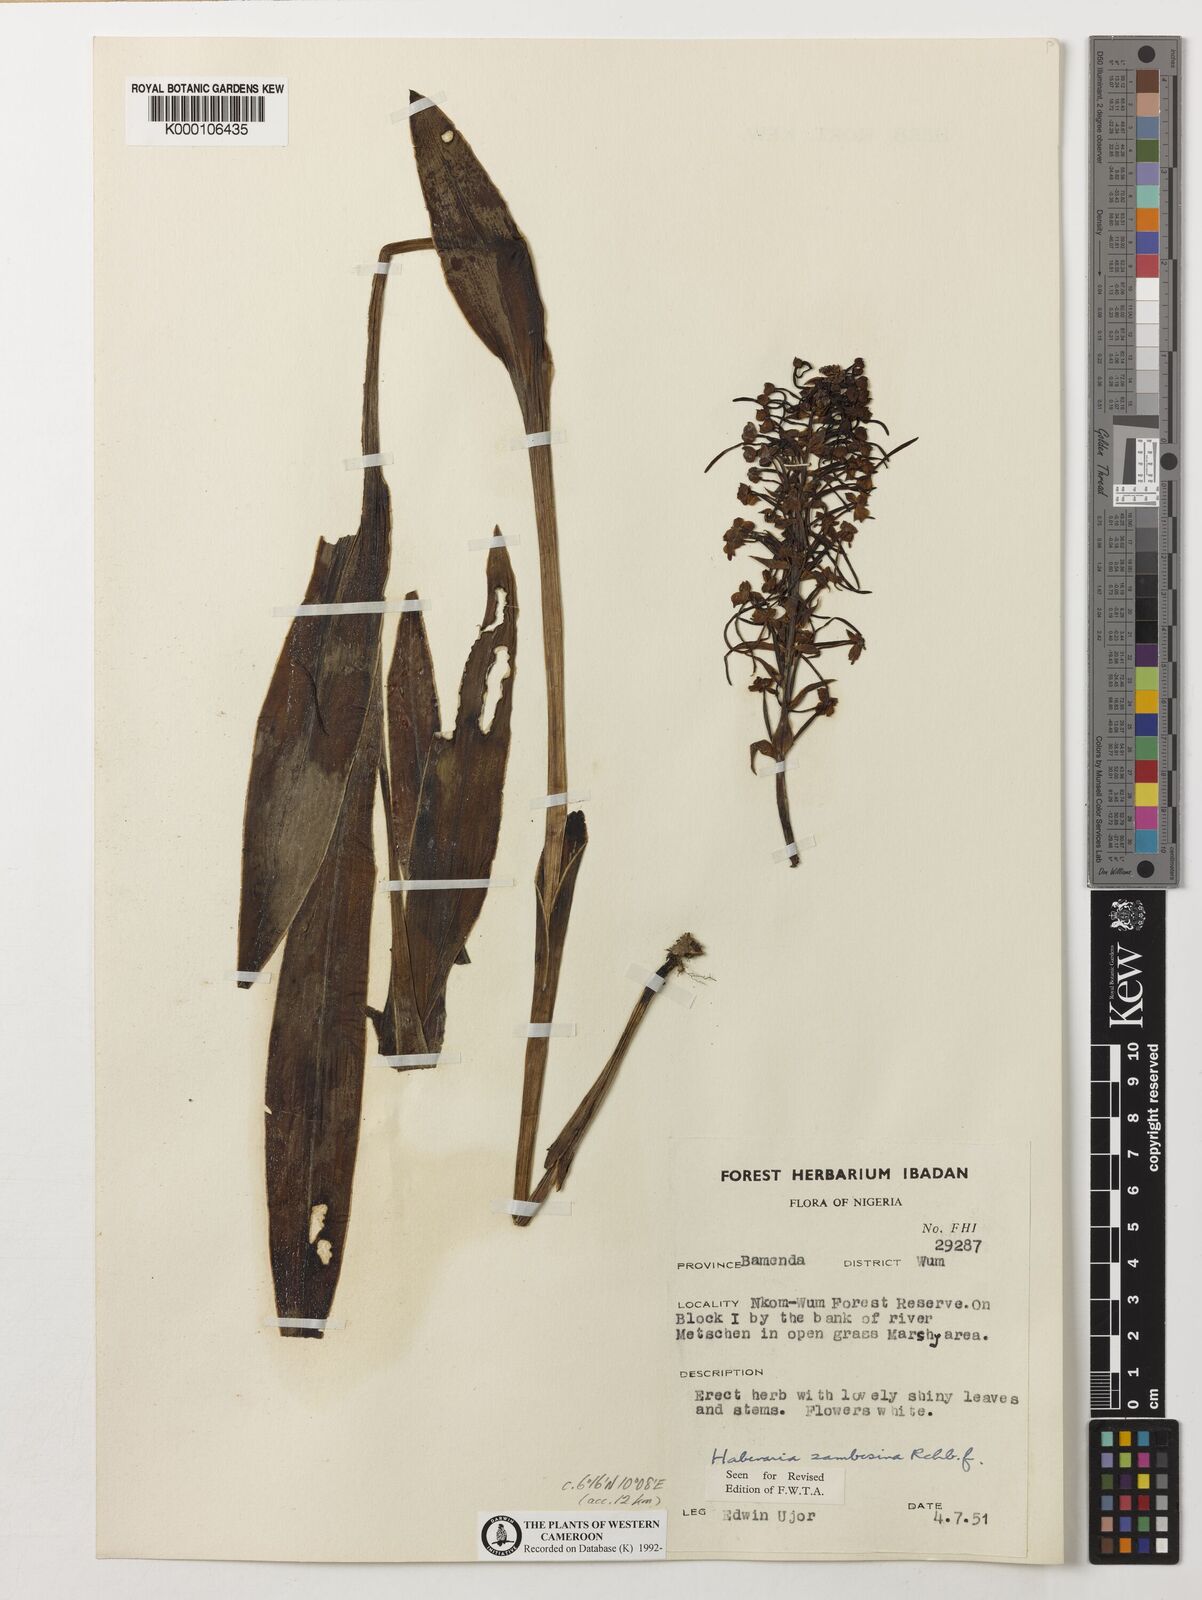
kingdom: Plantae
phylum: Tracheophyta
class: Liliopsida
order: Asparagales
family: Orchidaceae
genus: Habenaria
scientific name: Habenaria zambesina
